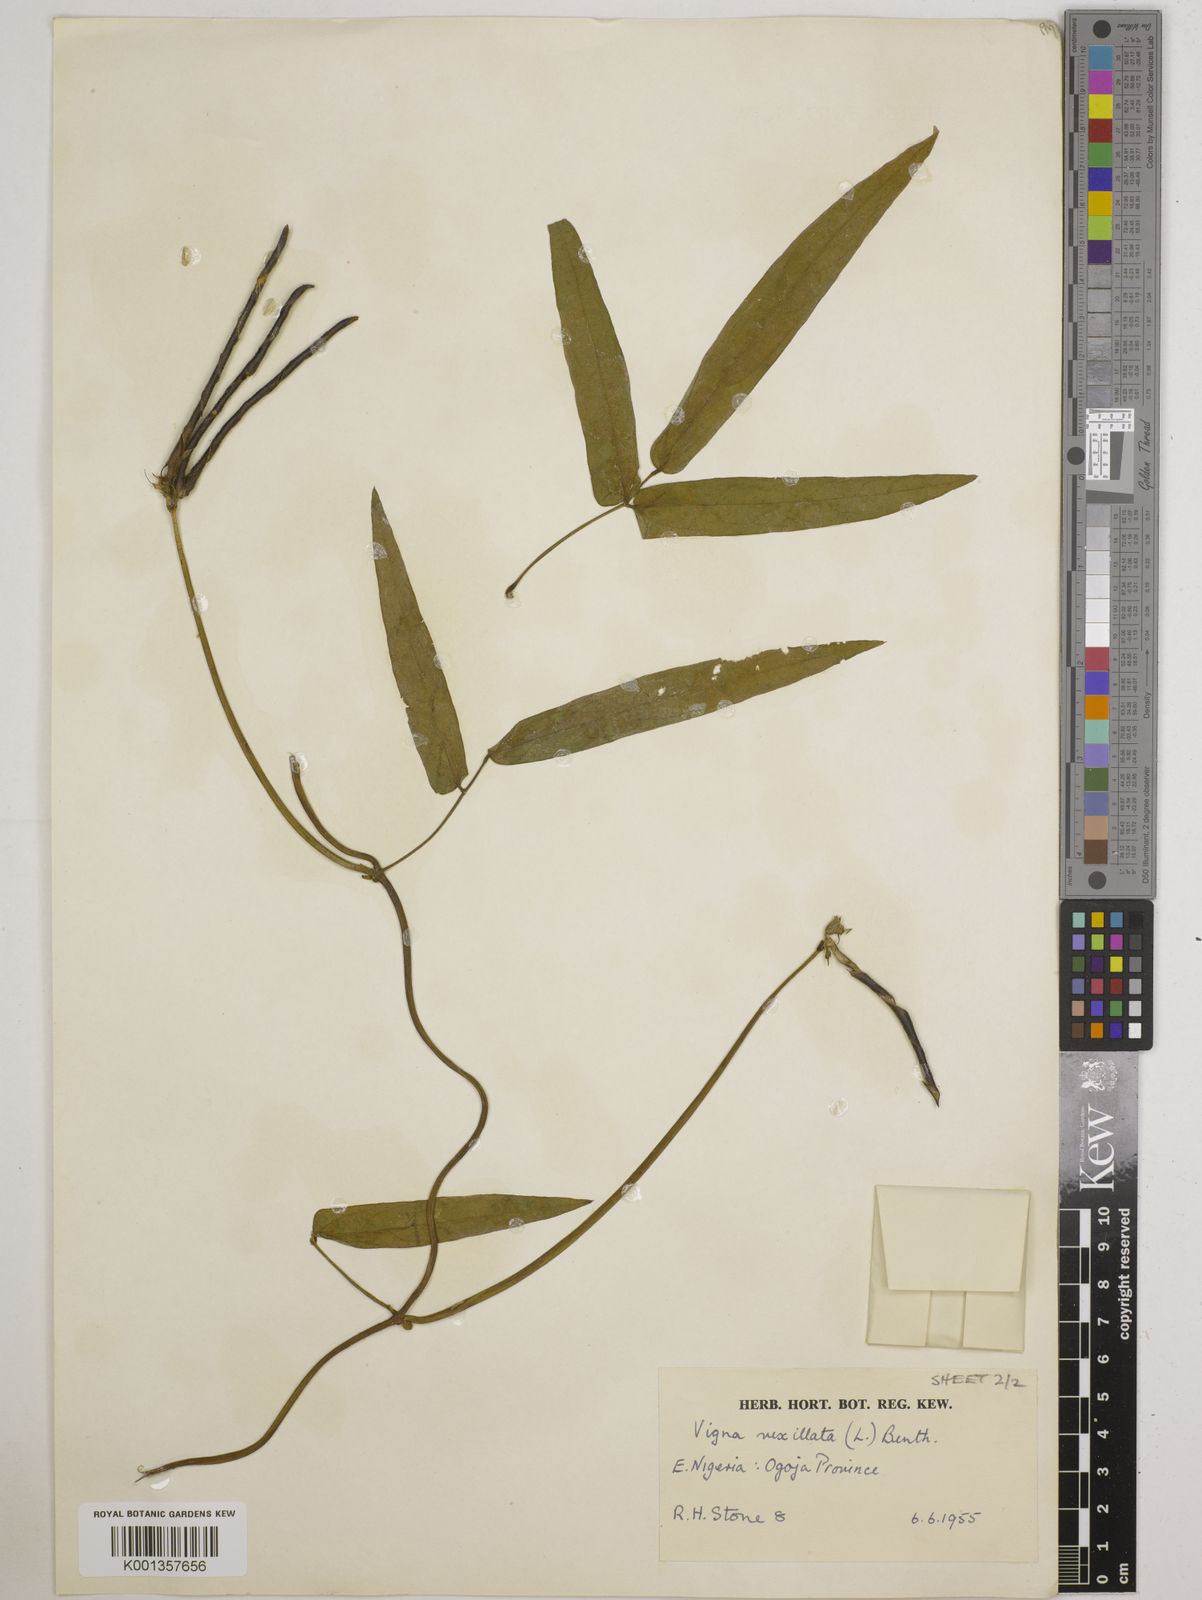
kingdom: Plantae
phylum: Tracheophyta
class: Magnoliopsida
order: Fabales
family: Fabaceae
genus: Vigna
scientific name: Vigna vexillata
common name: Zombi pea
